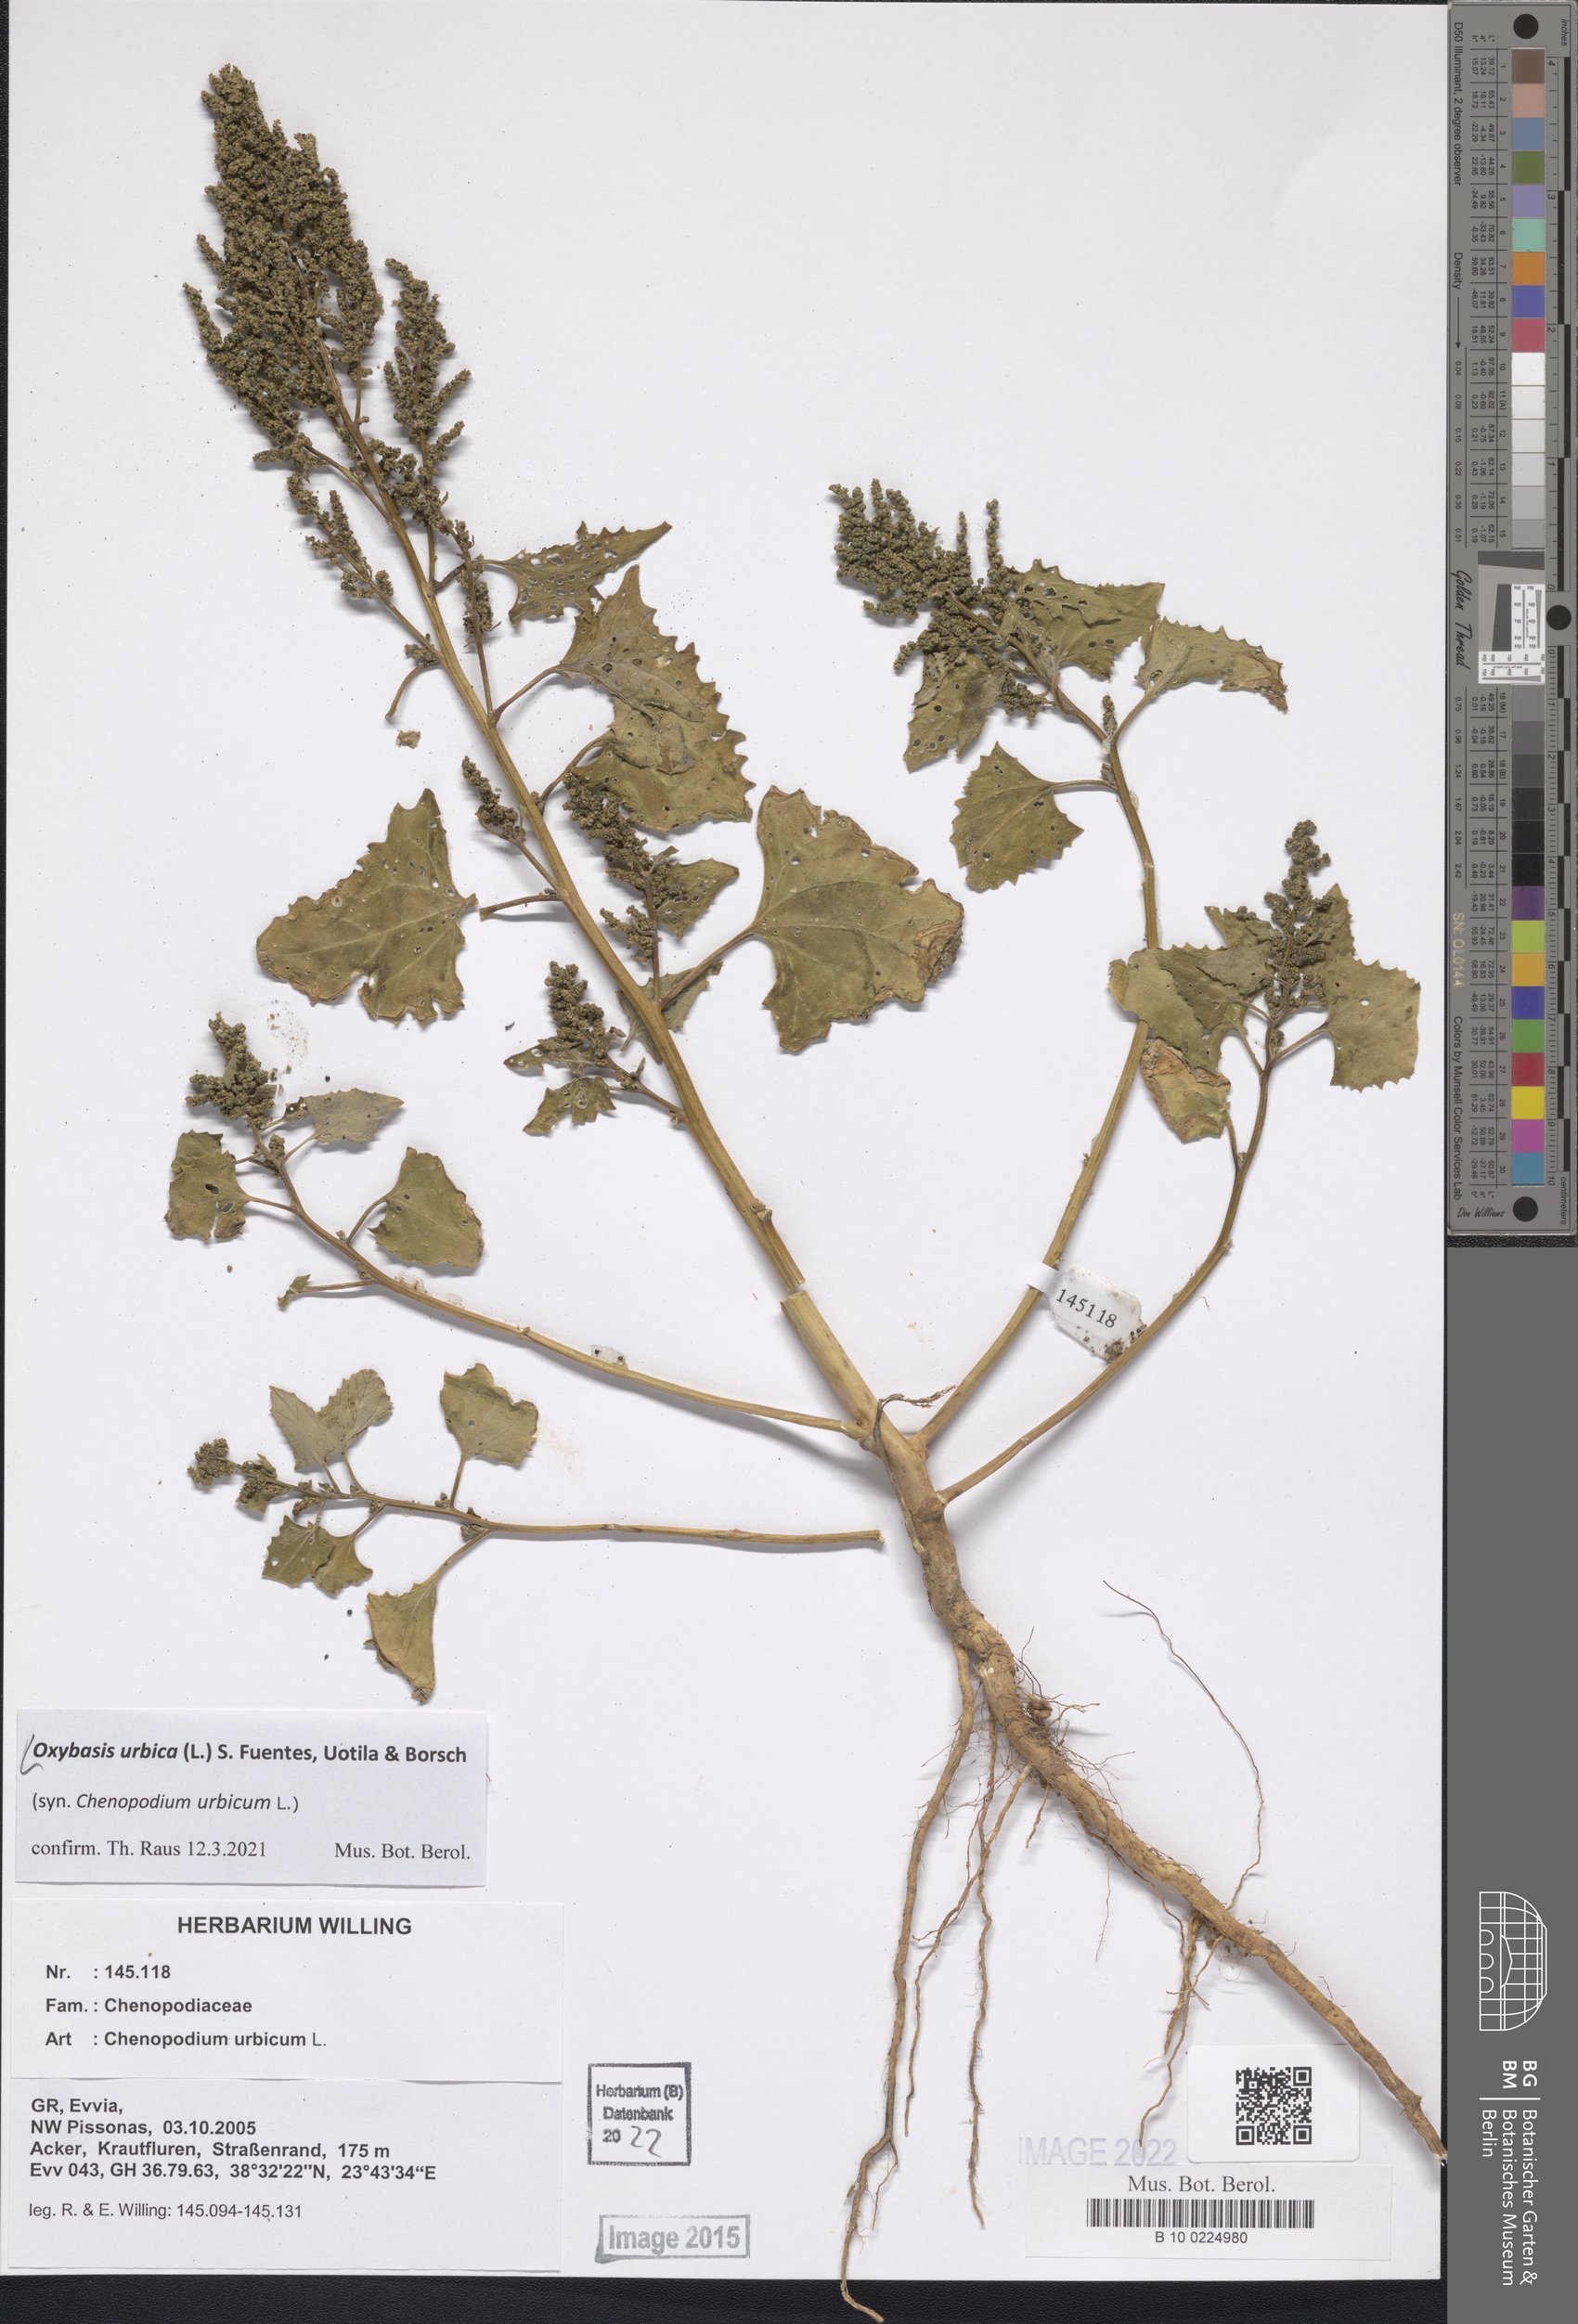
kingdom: Plantae
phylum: Tracheophyta
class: Magnoliopsida
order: Caryophyllales
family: Amaranthaceae
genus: Oxybasis
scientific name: Oxybasis urbica
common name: City goosefoot
